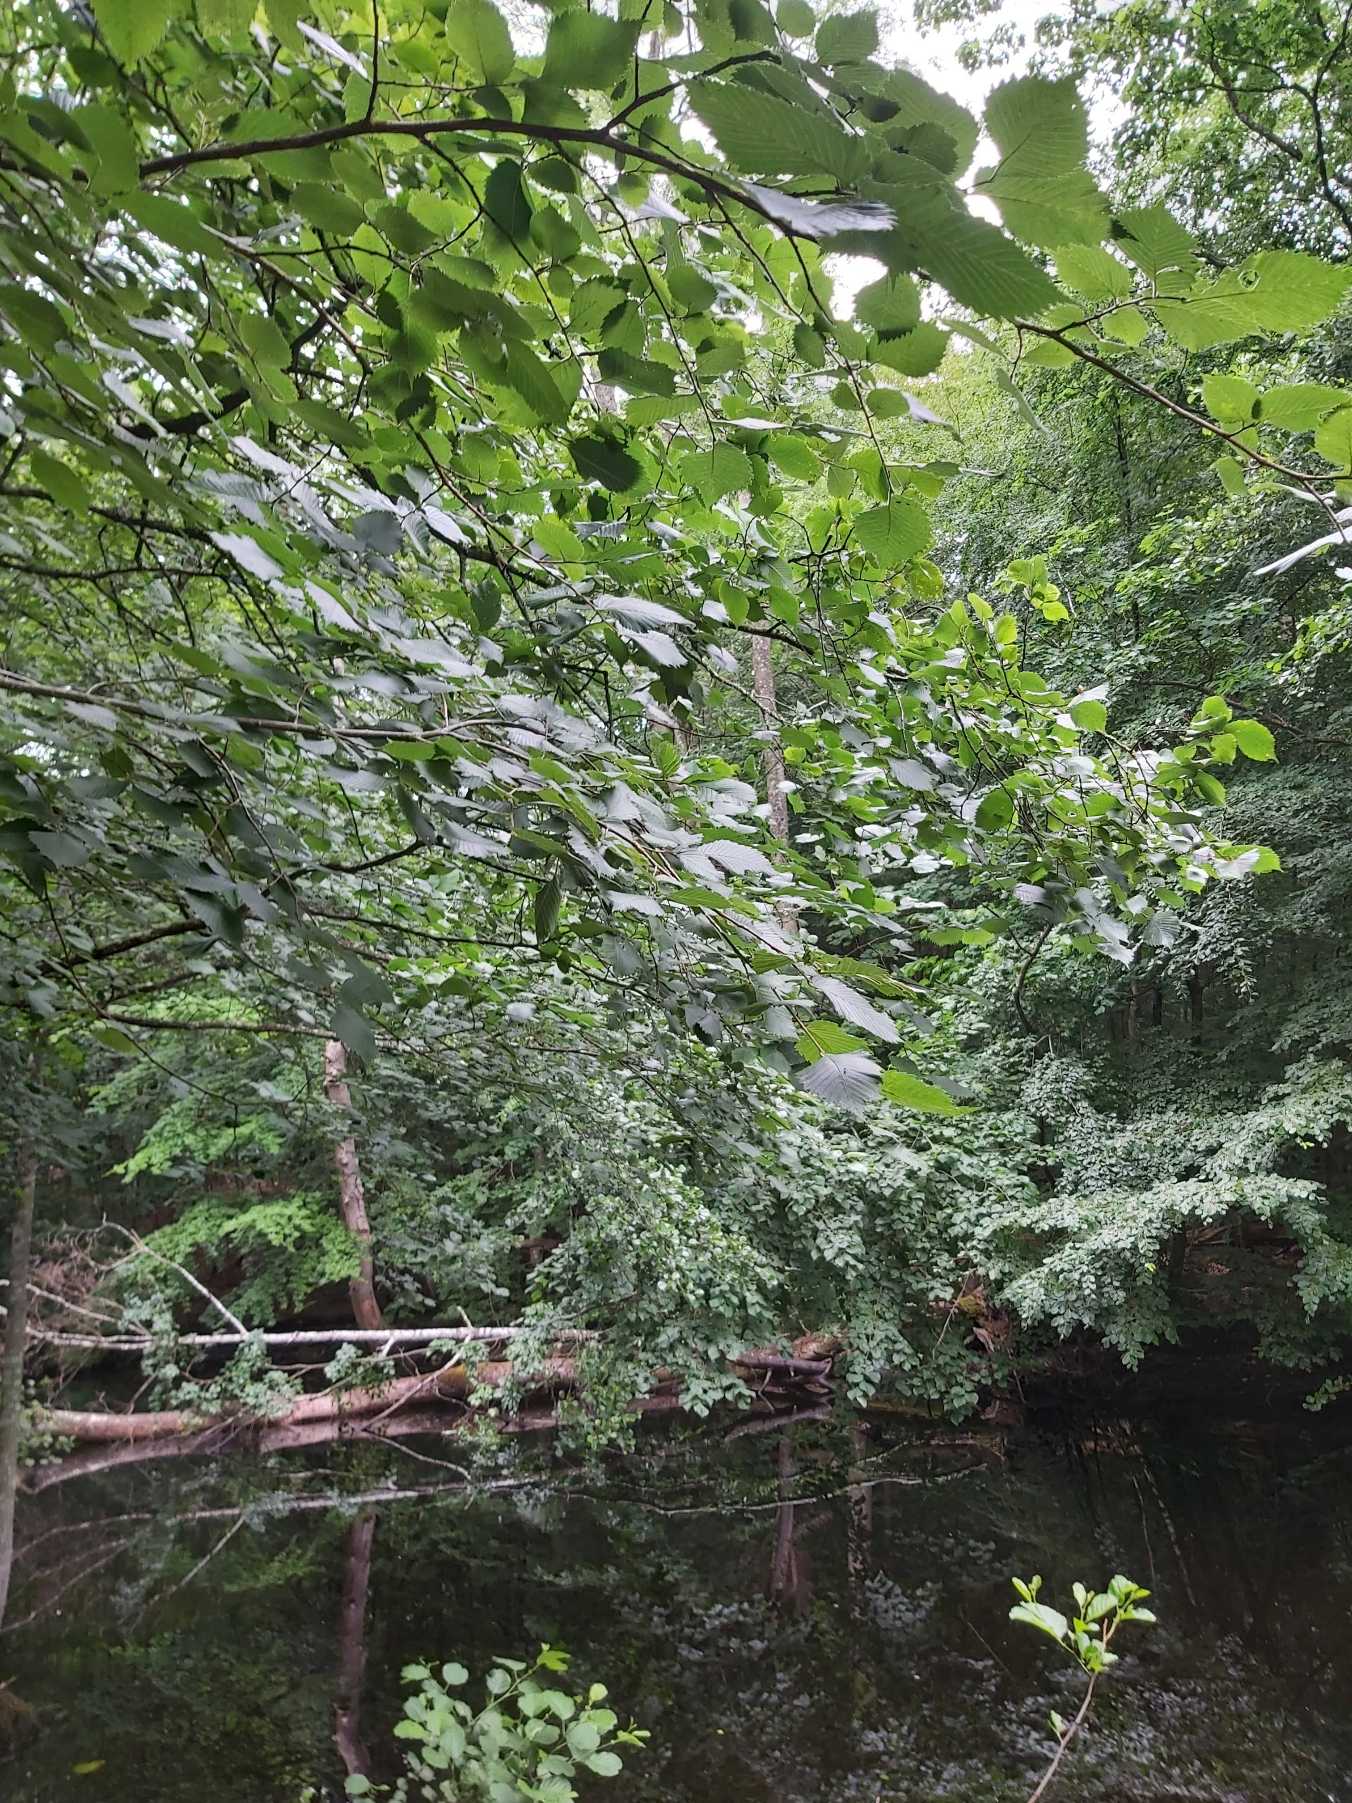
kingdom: Plantae
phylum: Tracheophyta
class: Magnoliopsida
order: Rosales
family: Ulmaceae
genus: Ulmus
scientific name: Ulmus laevis
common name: Skærm-elm
